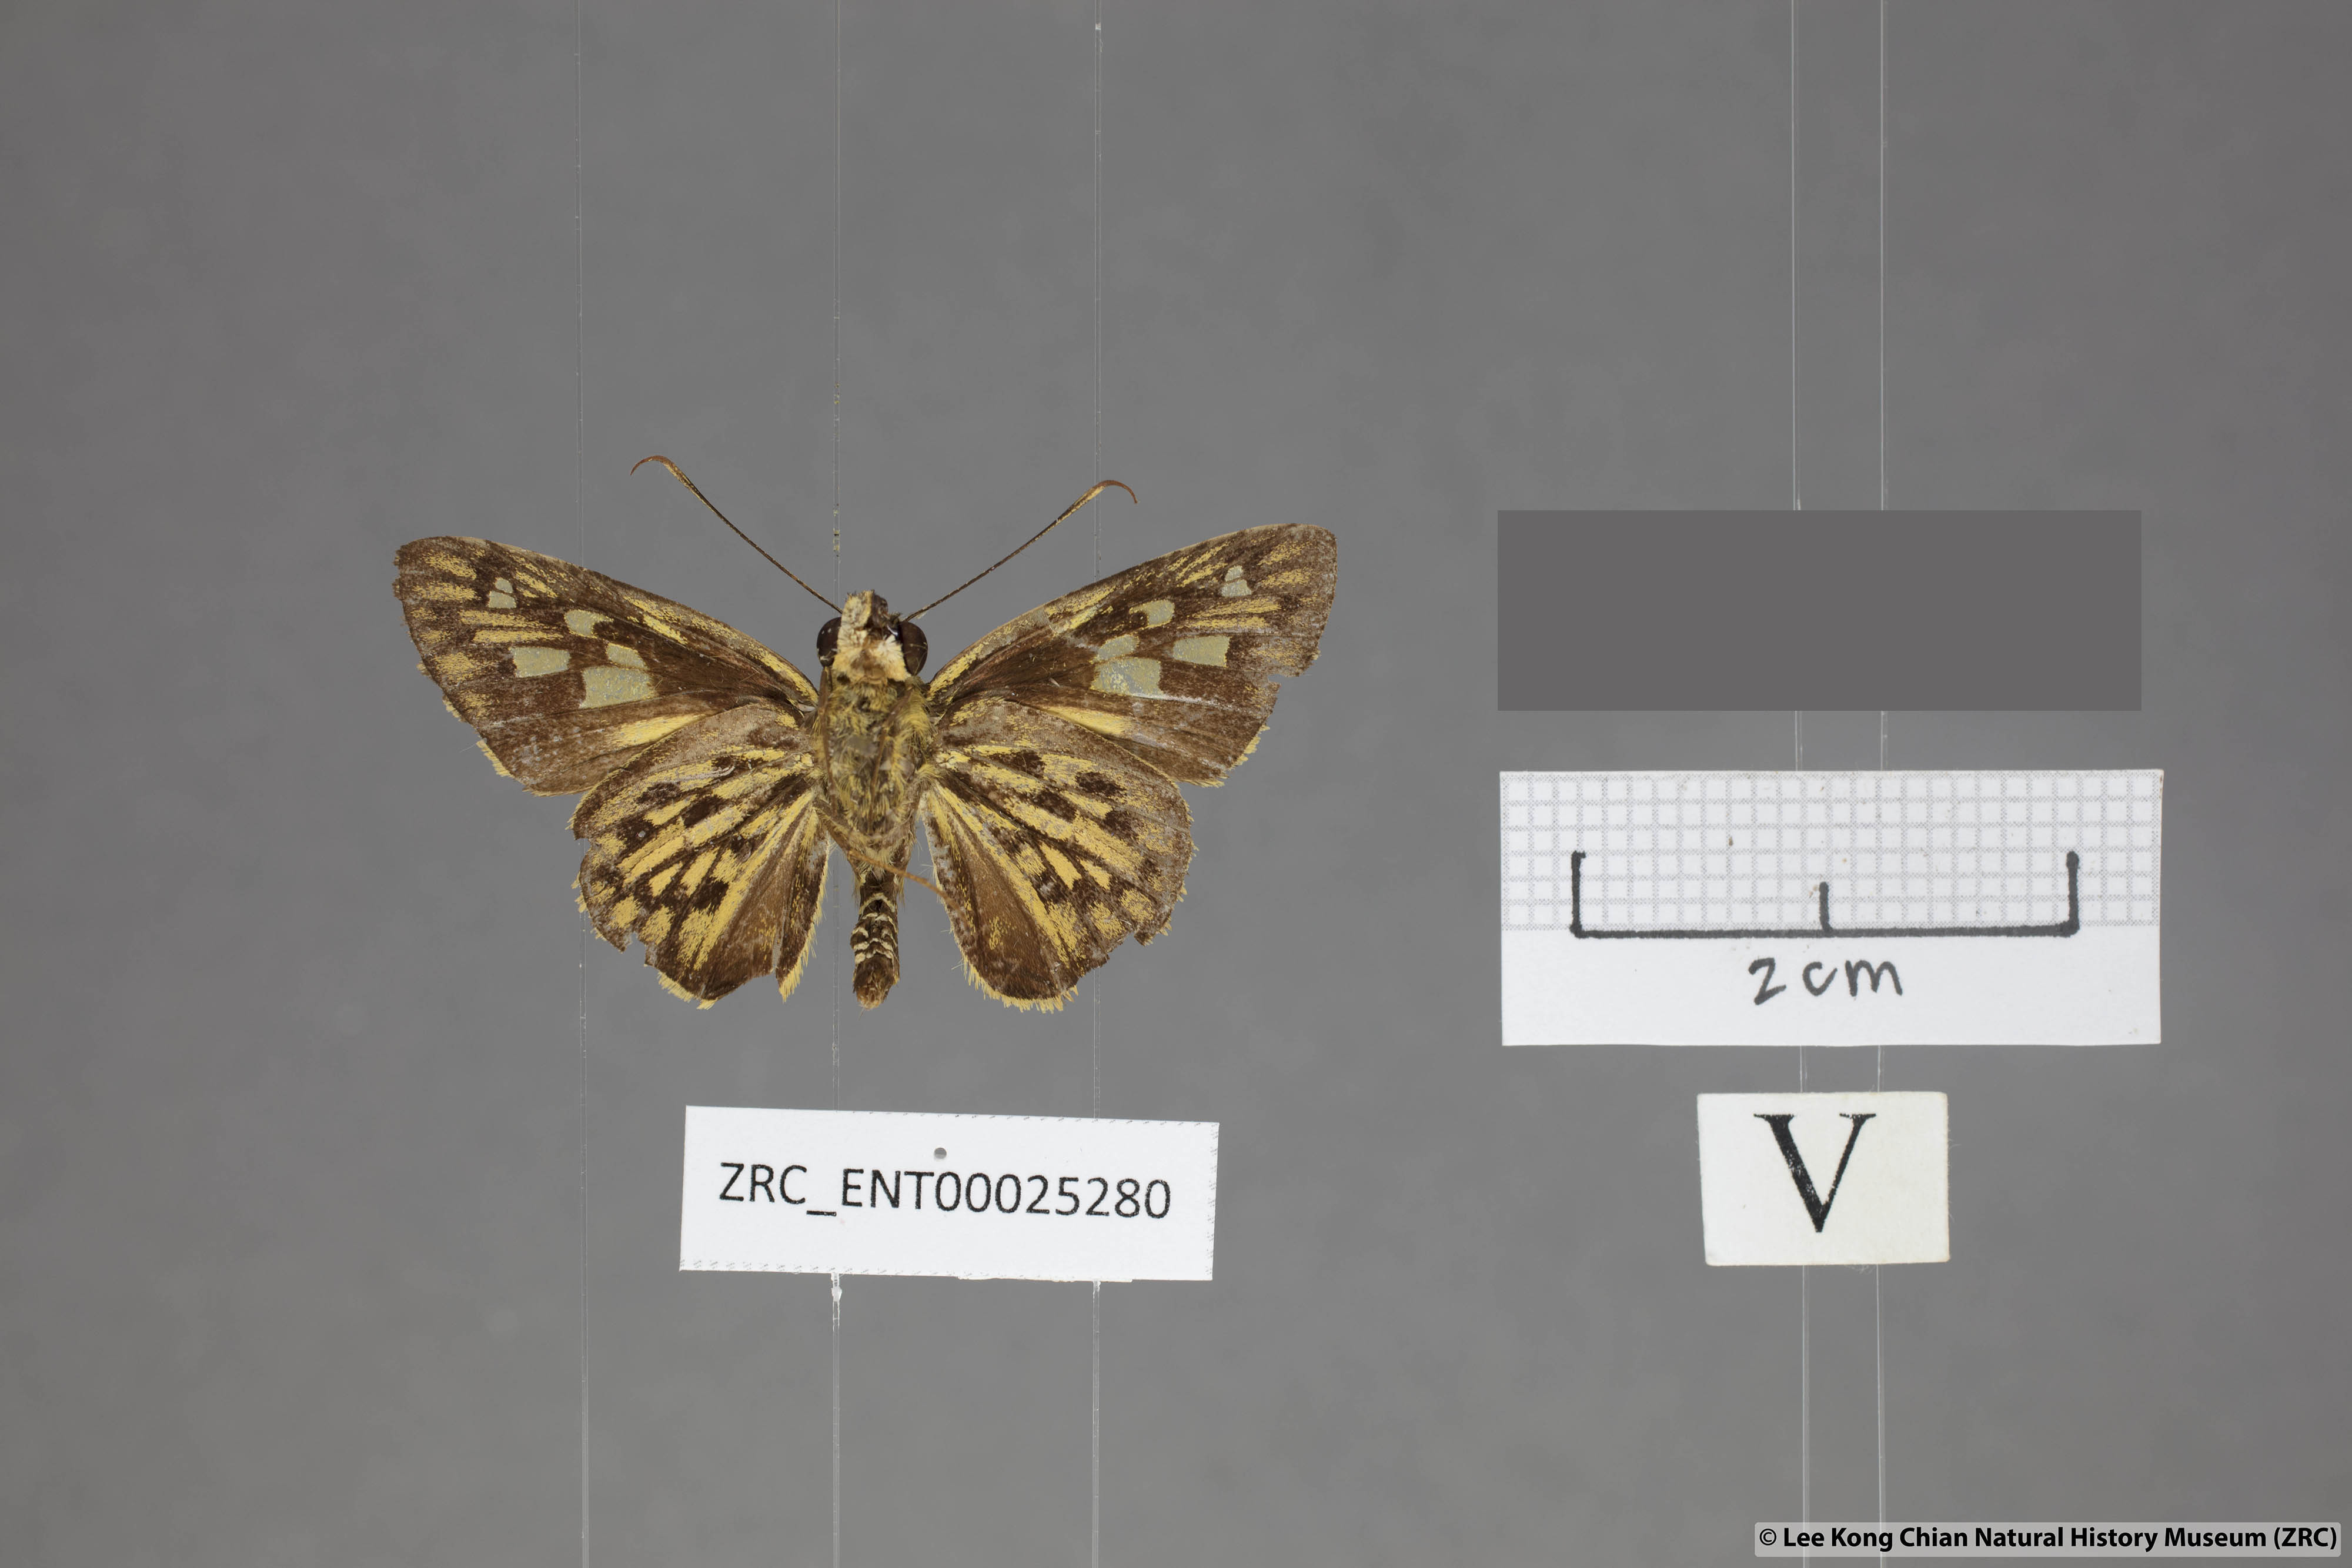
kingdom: Animalia
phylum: Arthropoda
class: Insecta
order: Lepidoptera
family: Hesperiidae
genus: Plastingia
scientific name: Plastingia pellonia
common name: Yellow chequered lancer
